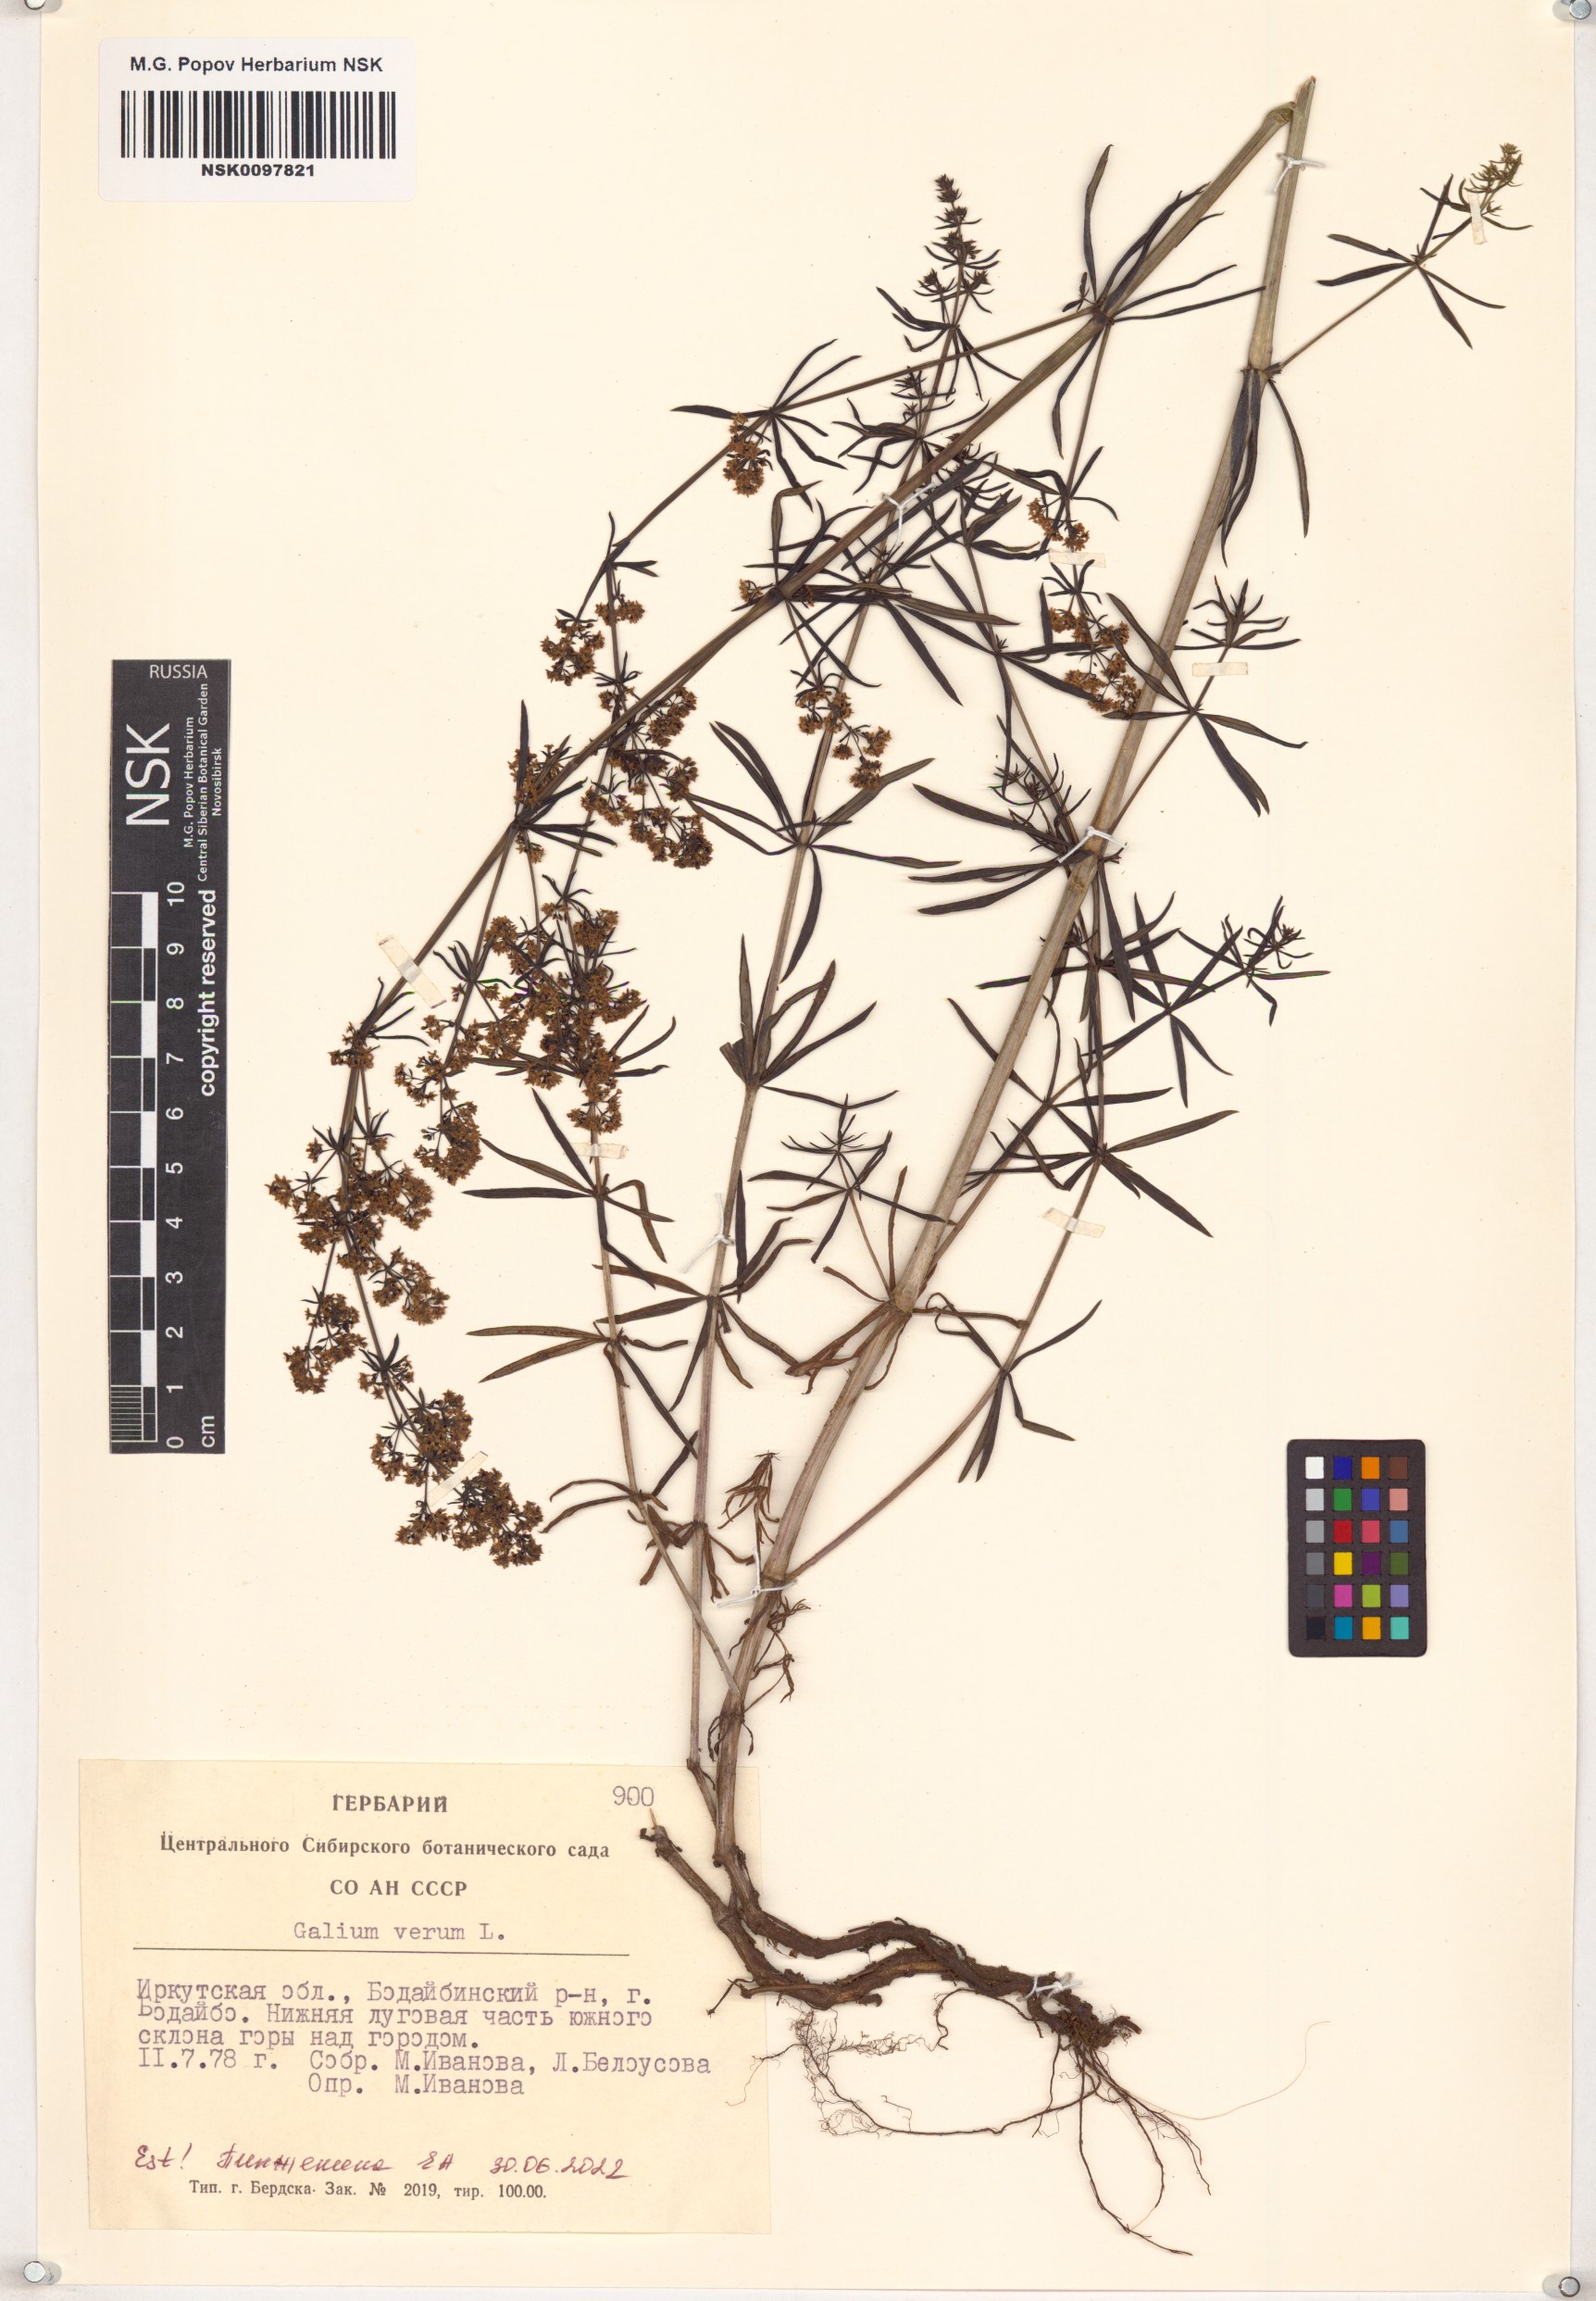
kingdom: Plantae
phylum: Tracheophyta
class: Magnoliopsida
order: Gentianales
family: Rubiaceae
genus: Galium
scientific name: Galium verum
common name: Lady's bedstraw
